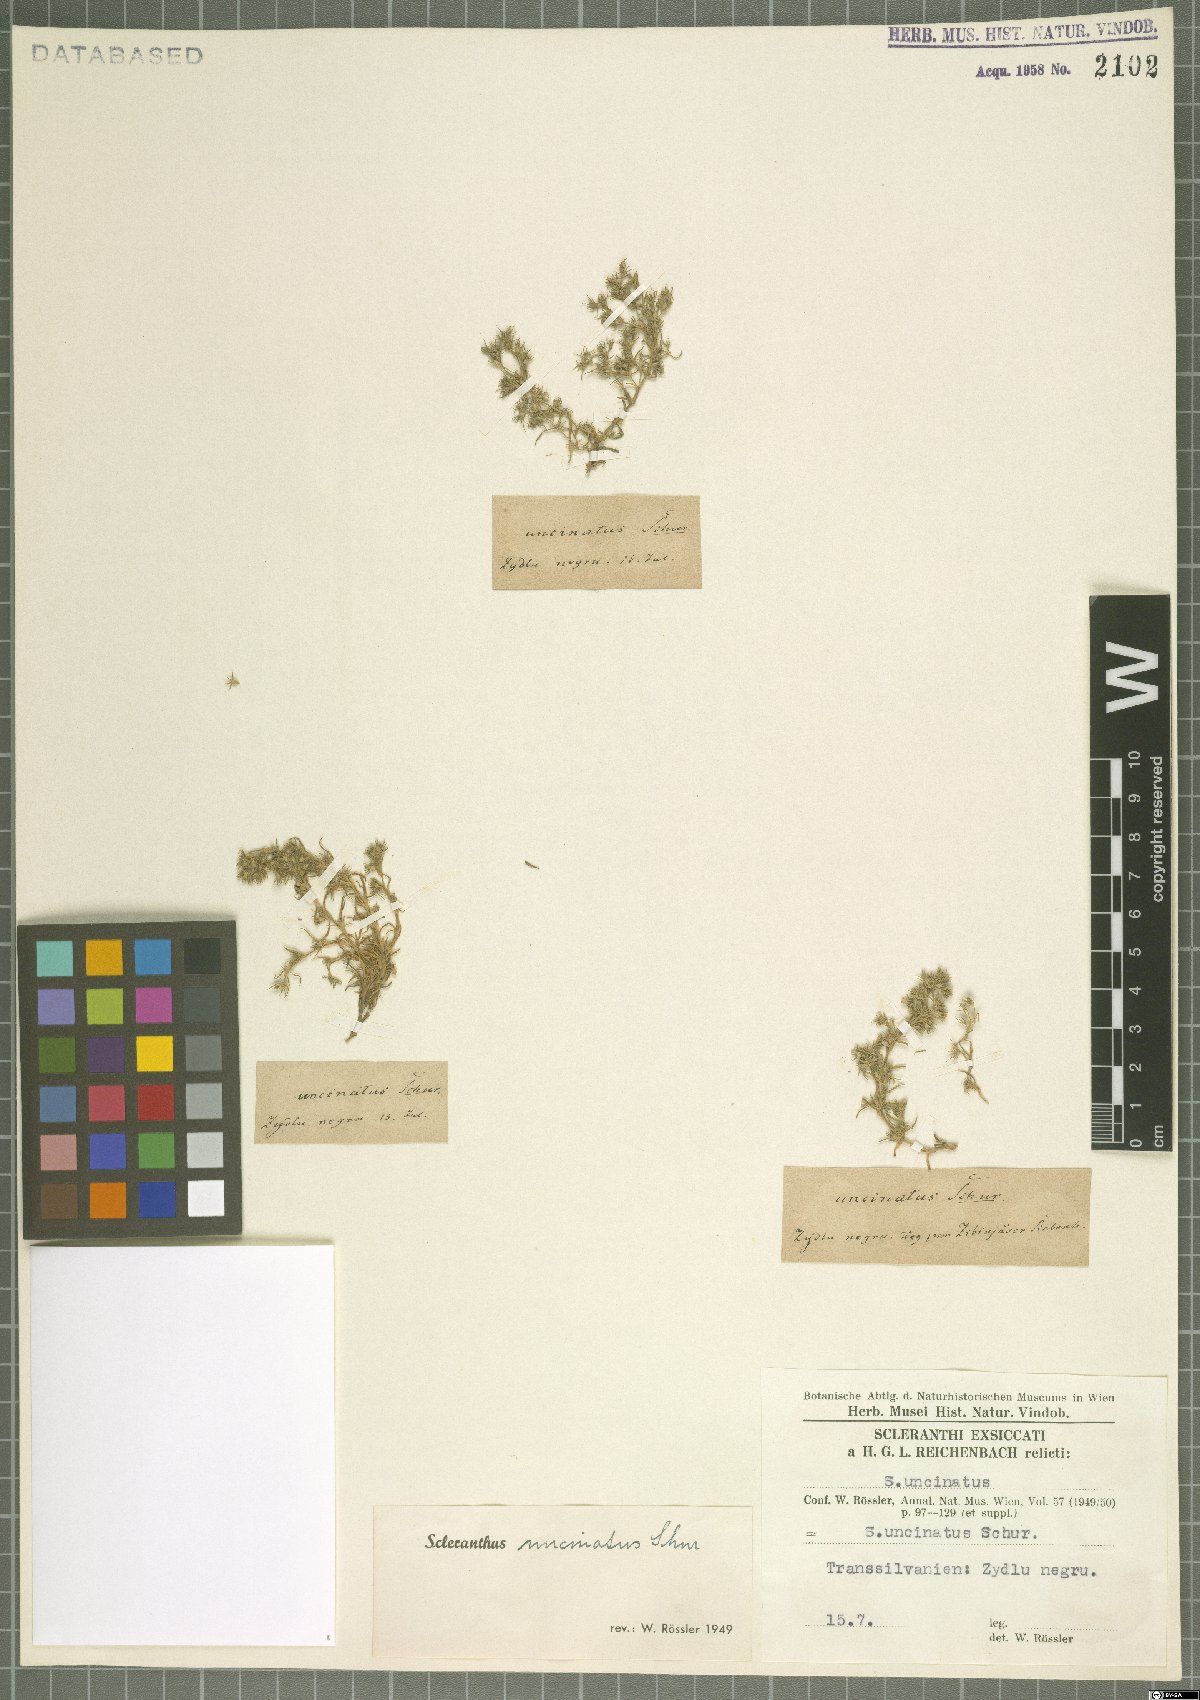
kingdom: Plantae
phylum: Tracheophyta
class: Magnoliopsida
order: Caryophyllales
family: Caryophyllaceae
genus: Scleranthus
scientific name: Scleranthus uncinatus
